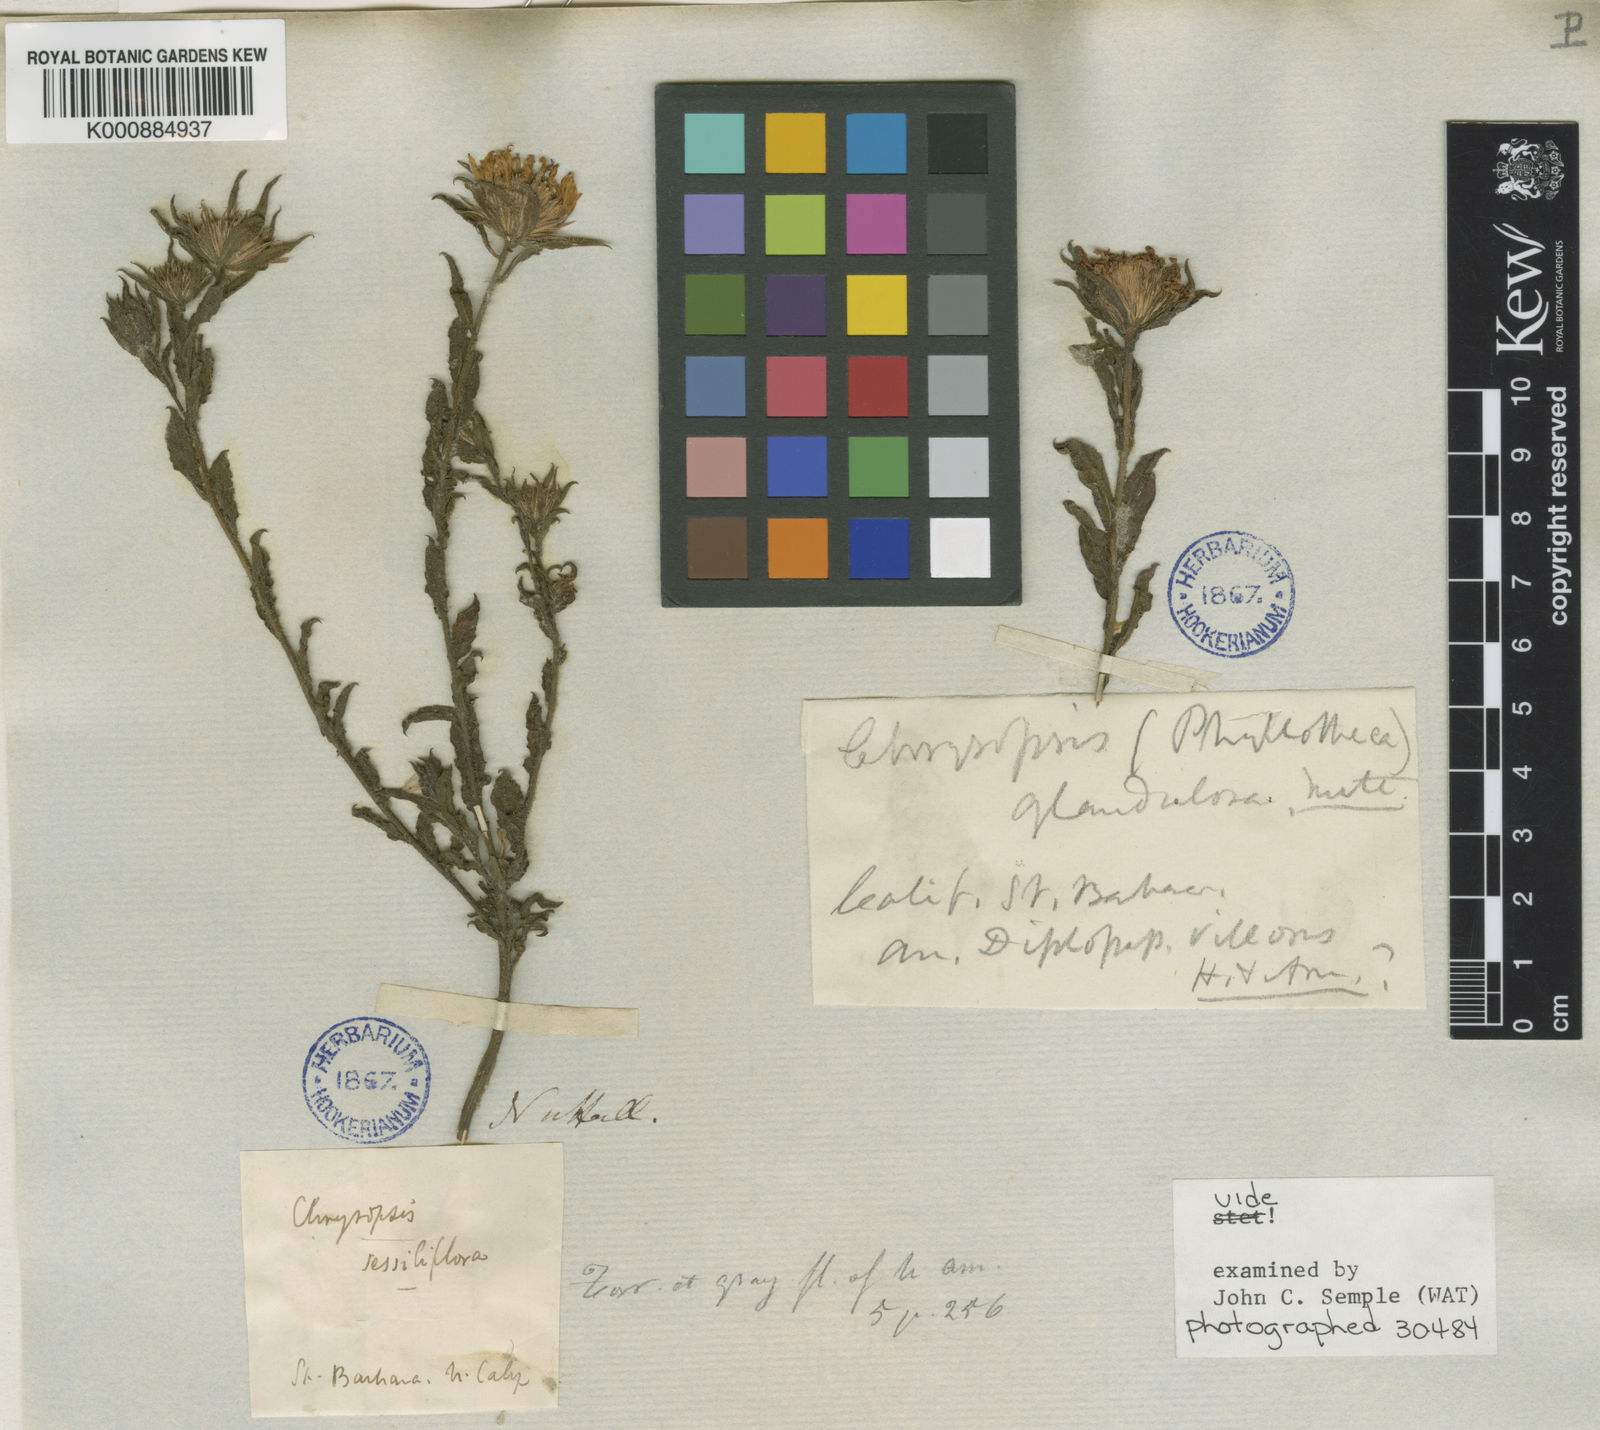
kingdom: Plantae
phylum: Tracheophyta
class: Magnoliopsida
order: Asterales
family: Asteraceae
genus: Heterotheca
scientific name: Heterotheca villosa
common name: Hairy false goldenaster
